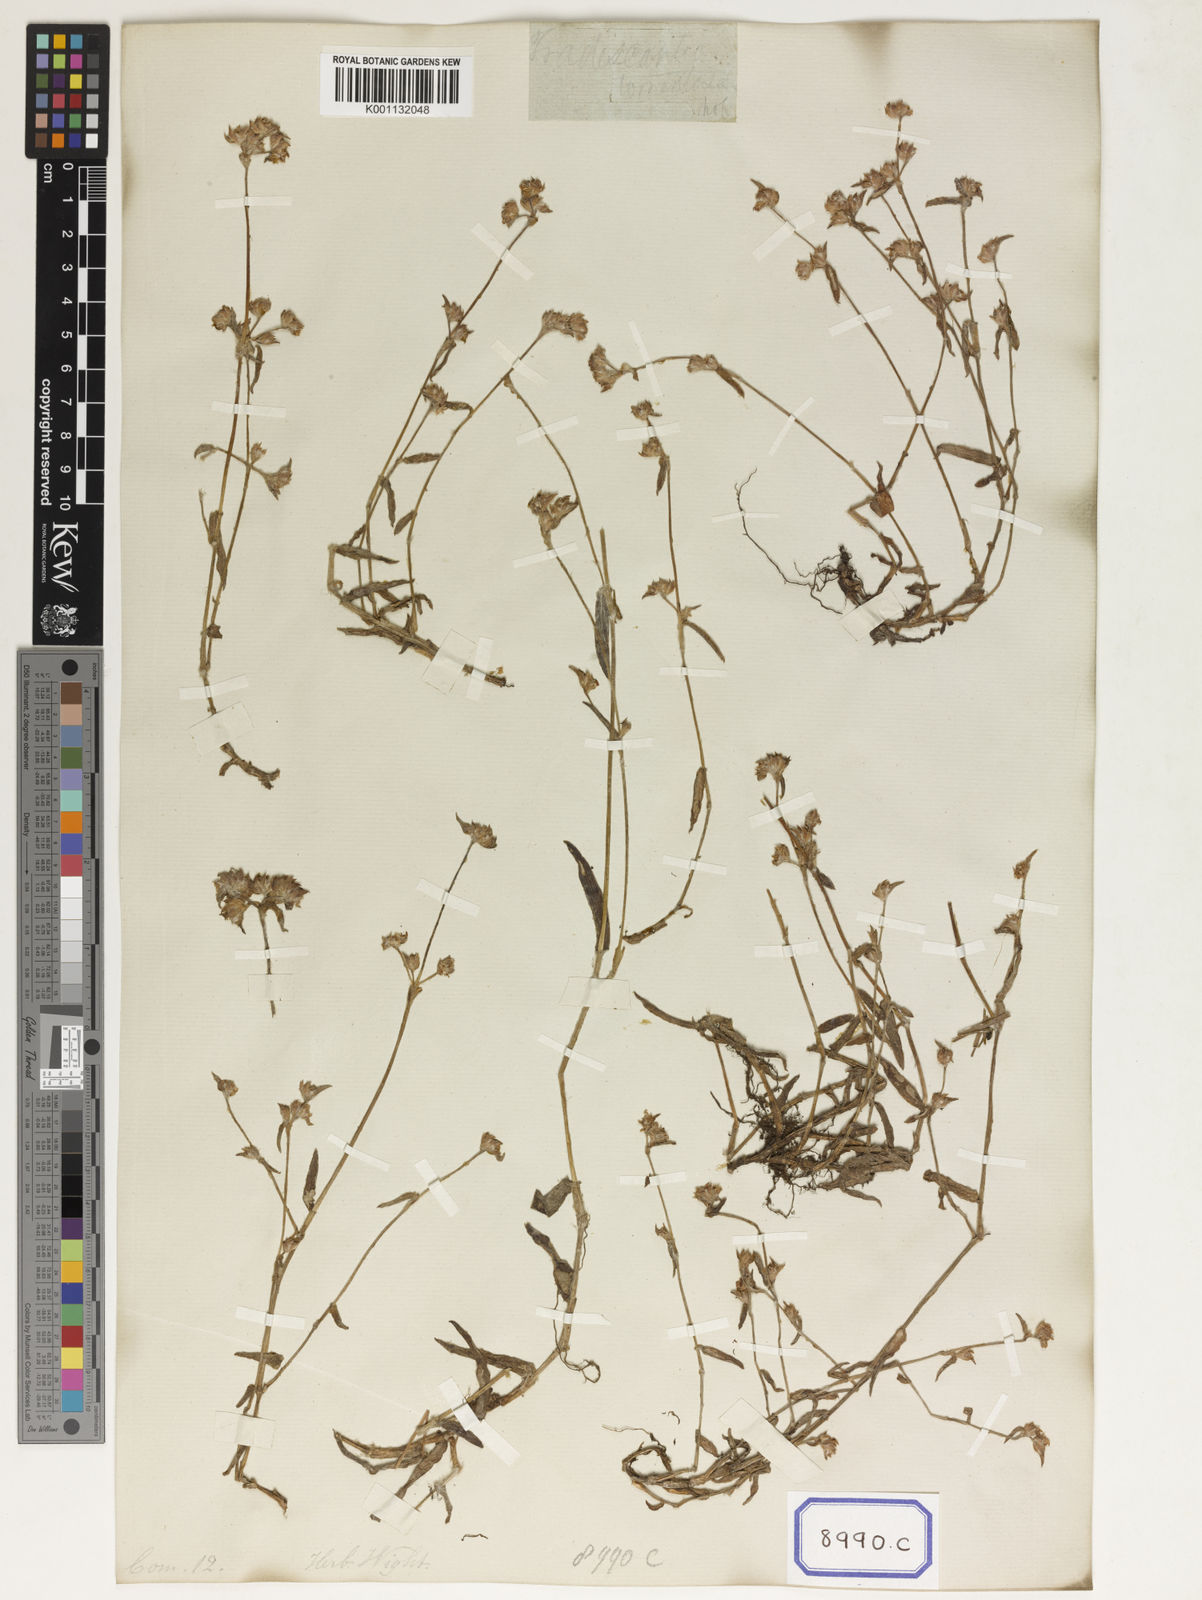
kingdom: Plantae
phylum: Tracheophyta
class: Liliopsida
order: Commelinales
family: Commelinaceae
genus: Cyanotis
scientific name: Cyanotis fasciculata
